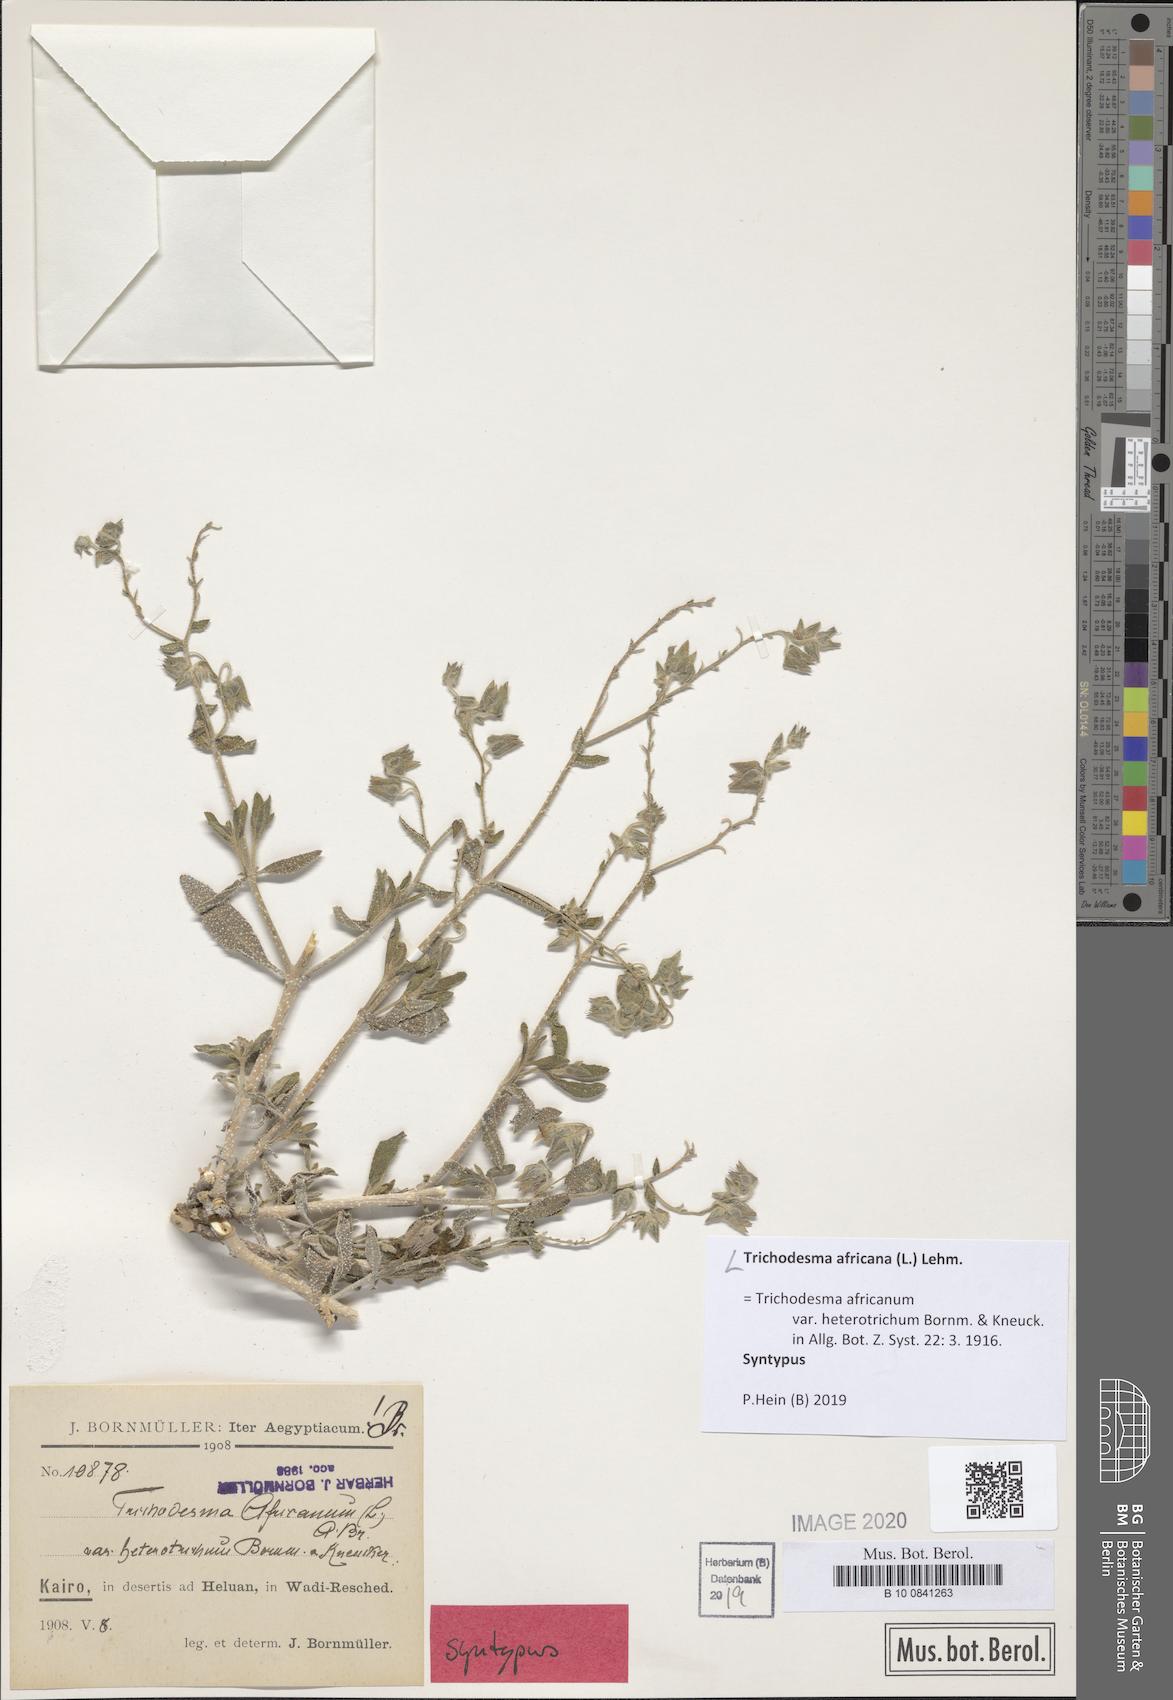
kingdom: Plantae
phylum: Tracheophyta
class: Magnoliopsida
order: Boraginales
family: Boraginaceae
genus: Trichodesma
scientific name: Trichodesma africanum
